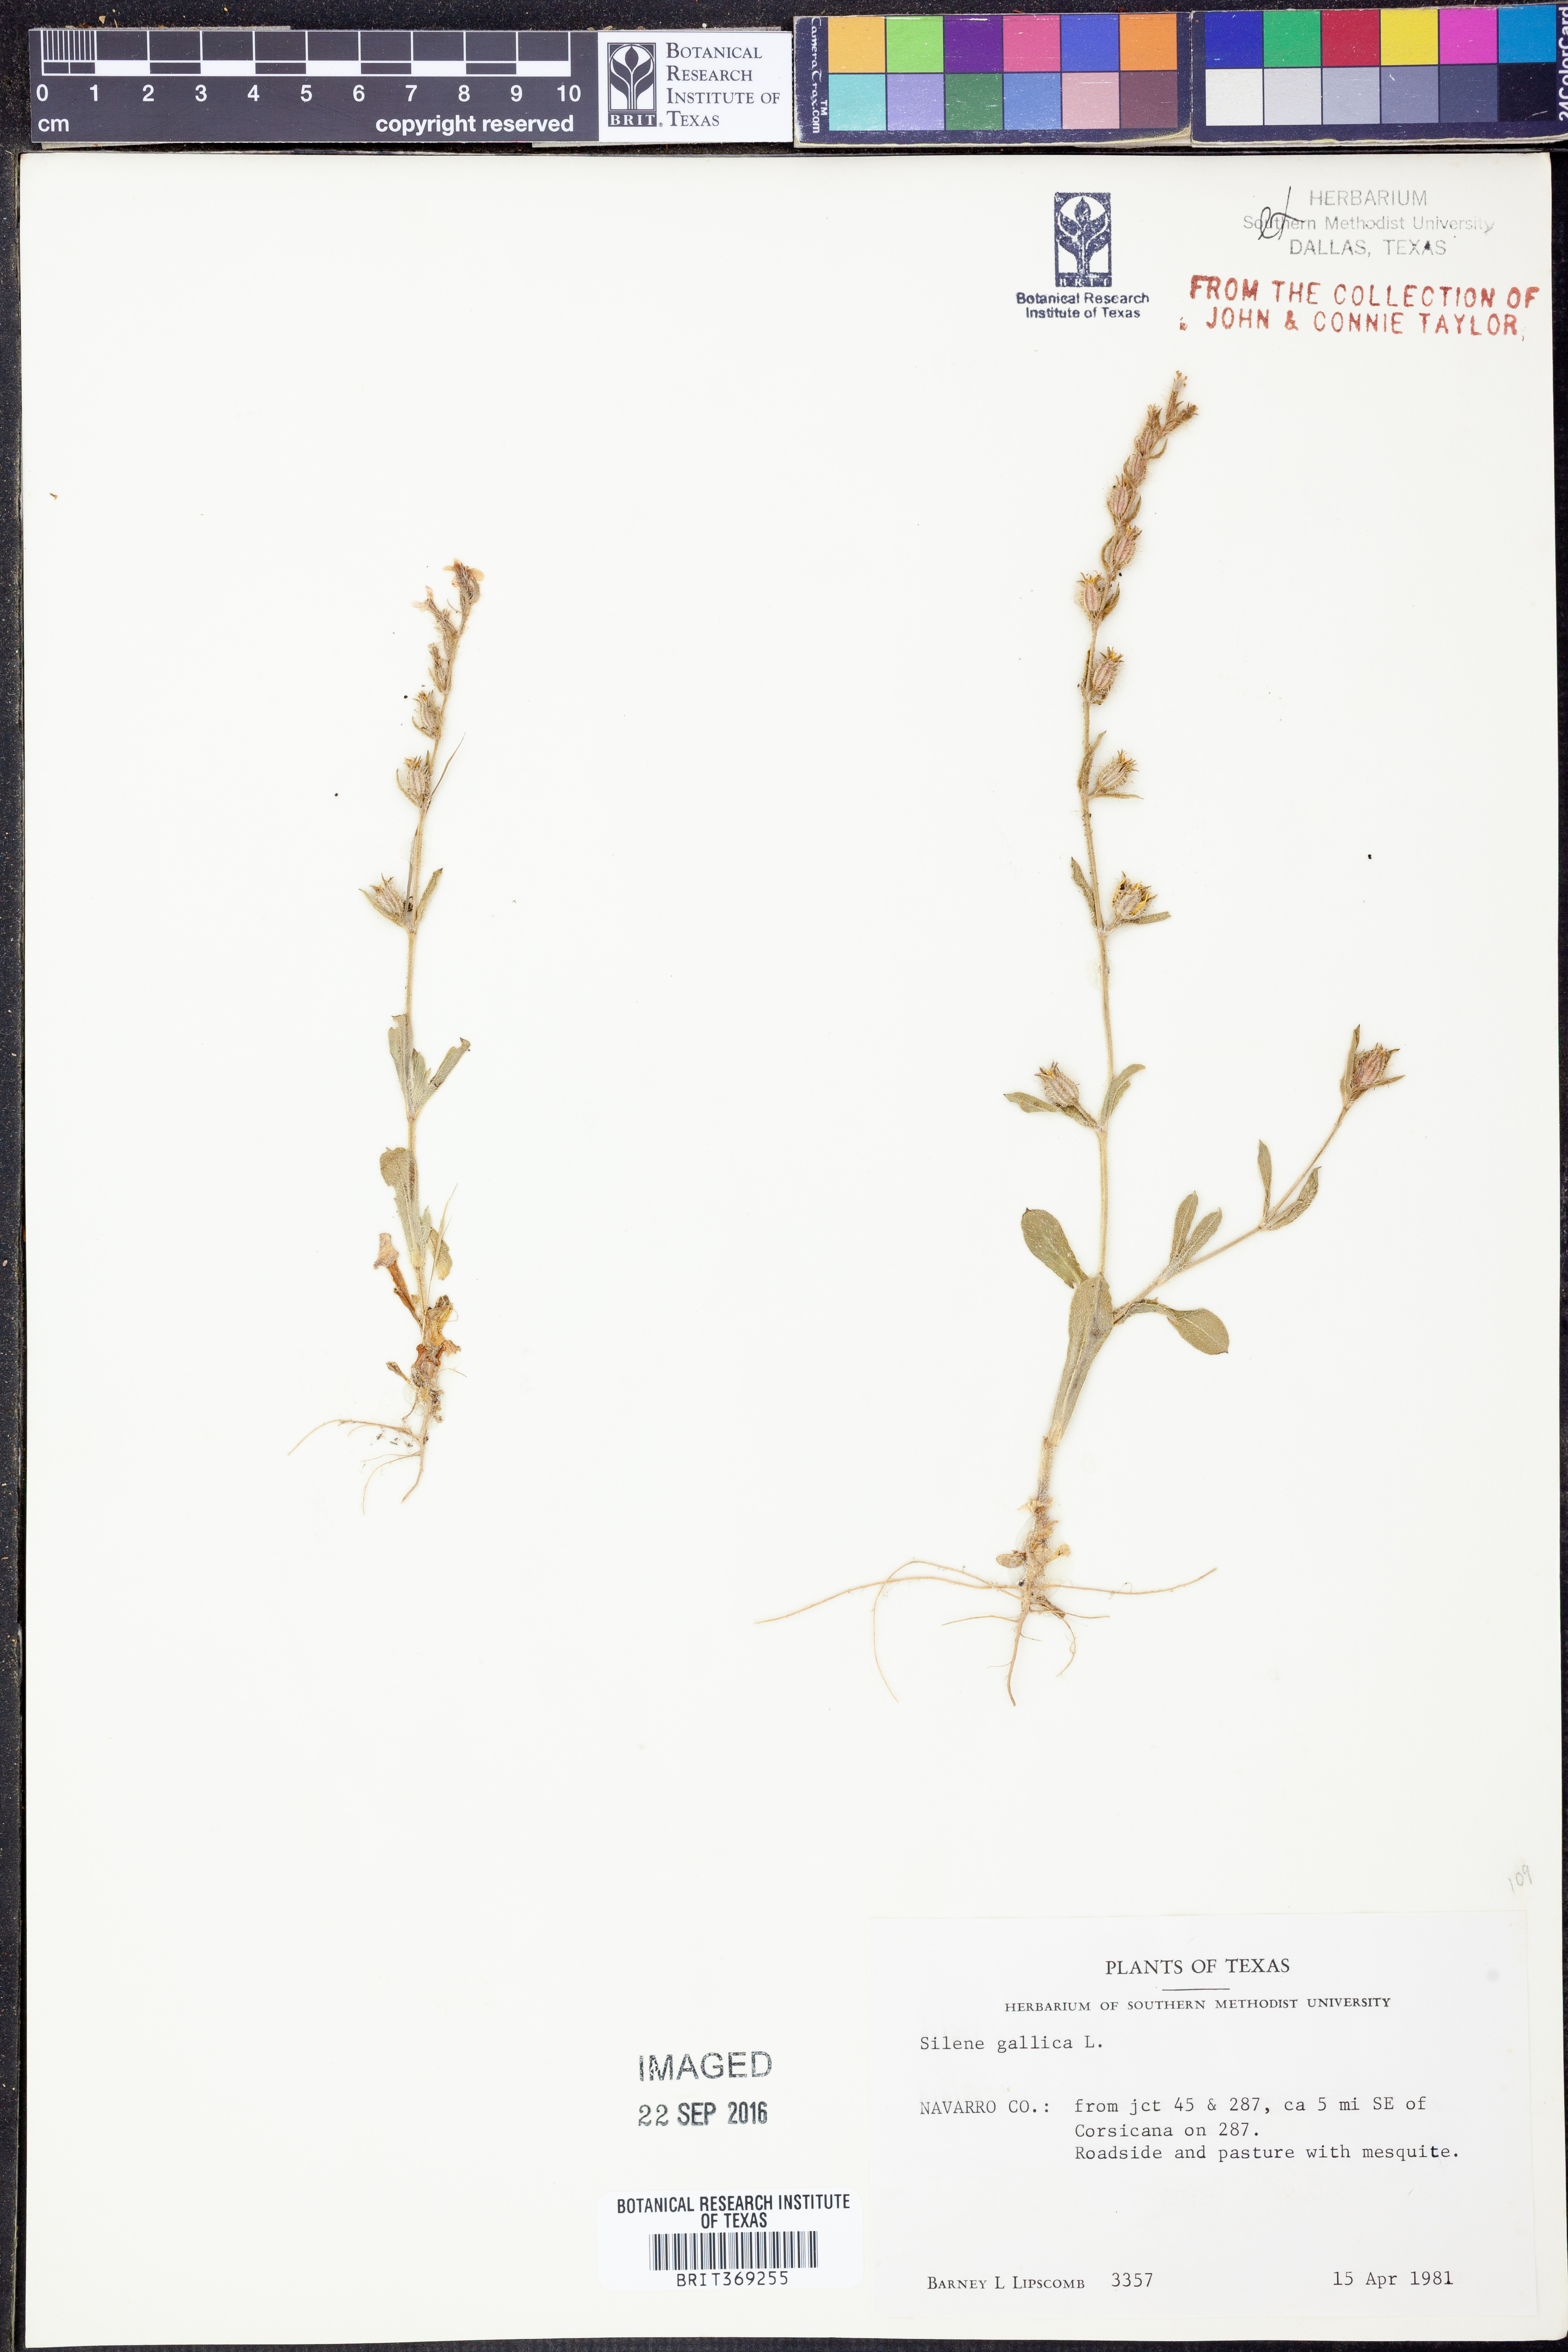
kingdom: Plantae
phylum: Tracheophyta
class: Magnoliopsida
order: Caryophyllales
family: Caryophyllaceae
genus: Silene
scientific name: Silene gallica
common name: Small-flowered catchfly
